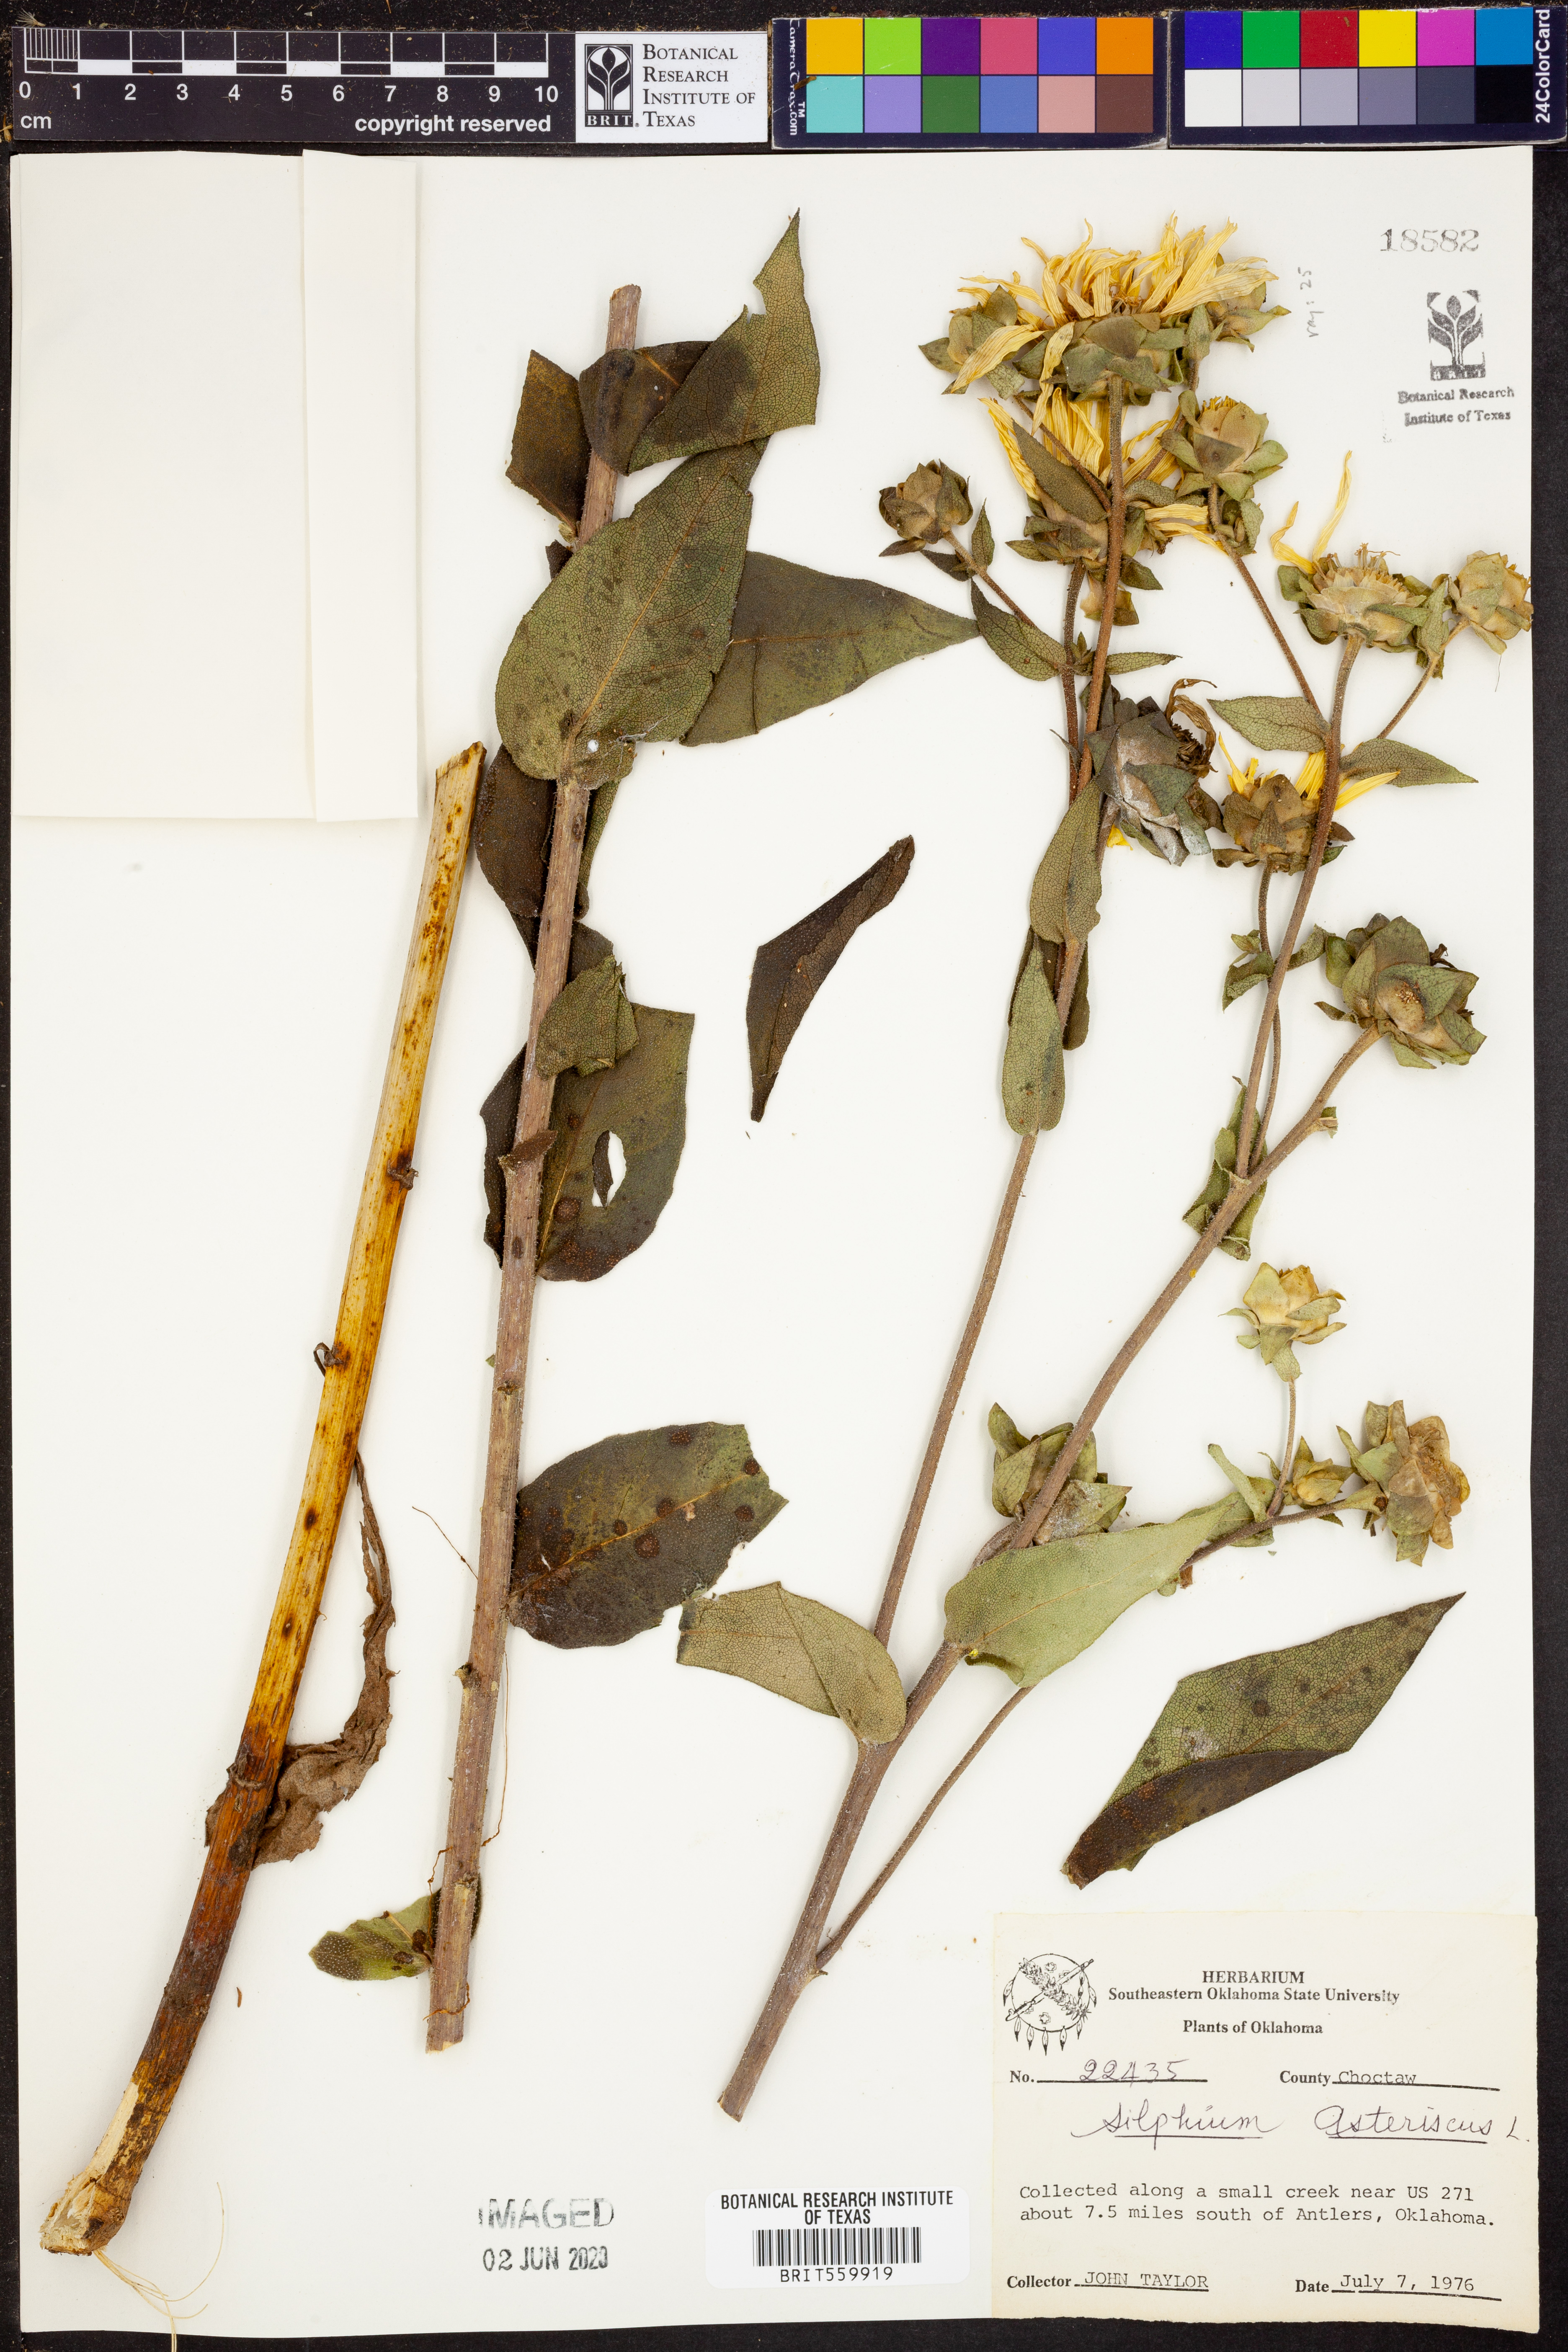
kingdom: Plantae
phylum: Tracheophyta
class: Magnoliopsida
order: Asterales
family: Asteraceae
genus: Silphium
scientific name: Silphium asteriscus
